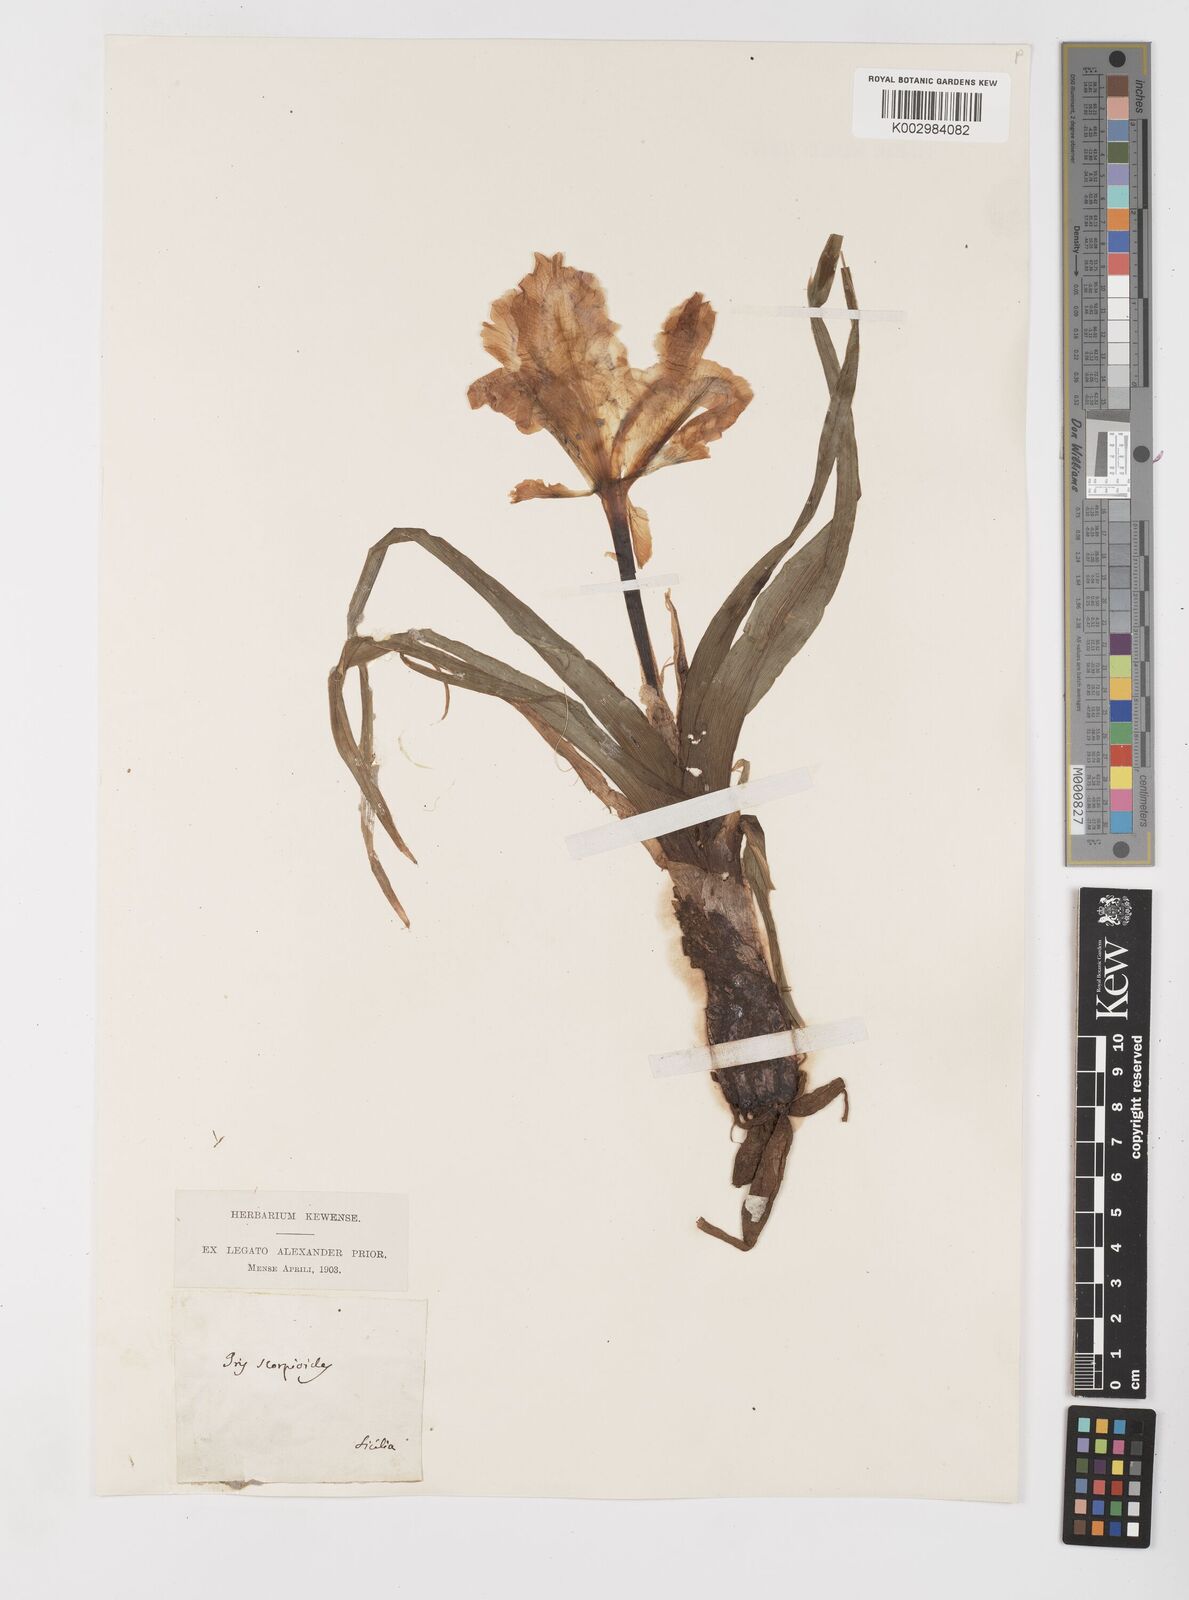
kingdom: Plantae
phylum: Tracheophyta
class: Liliopsida
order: Asparagales
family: Iridaceae
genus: Iris
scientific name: Iris planifolia
